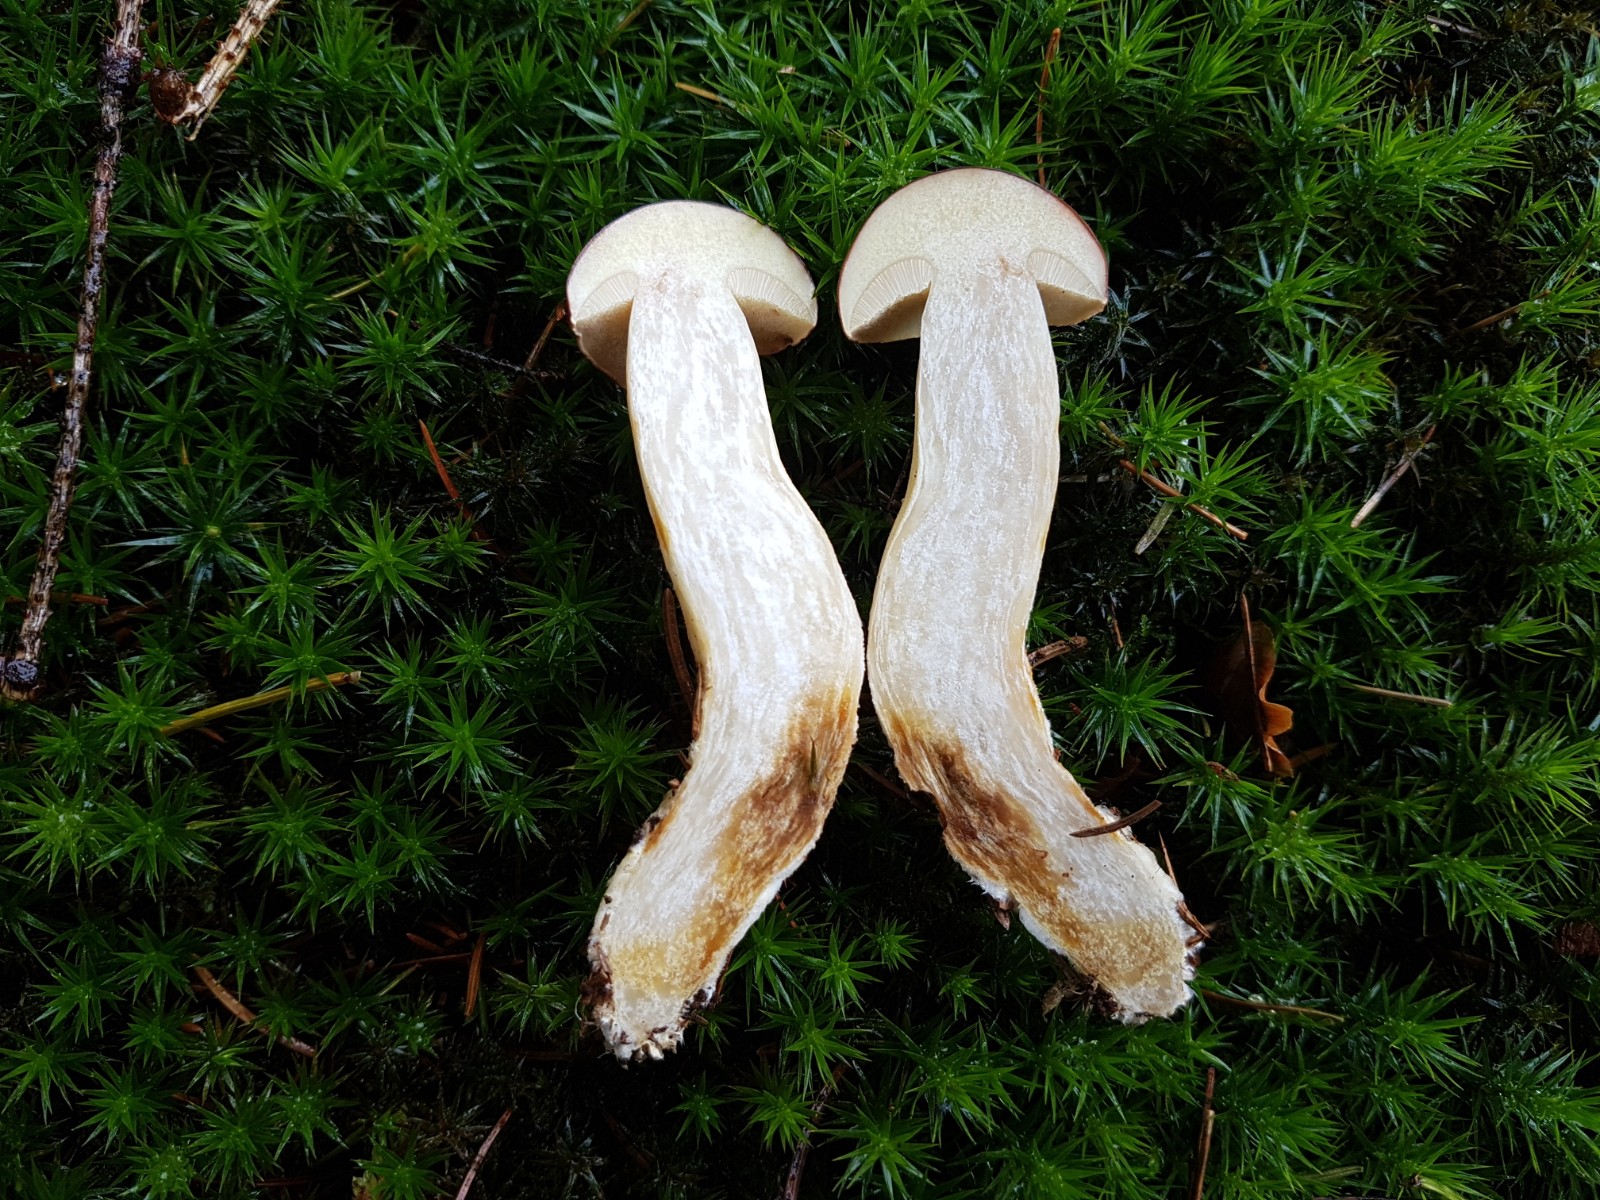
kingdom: Fungi
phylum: Basidiomycota
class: Agaricomycetes
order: Boletales
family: Boletaceae
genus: Imleria
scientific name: Imleria badia
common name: brunstokket rørhat
